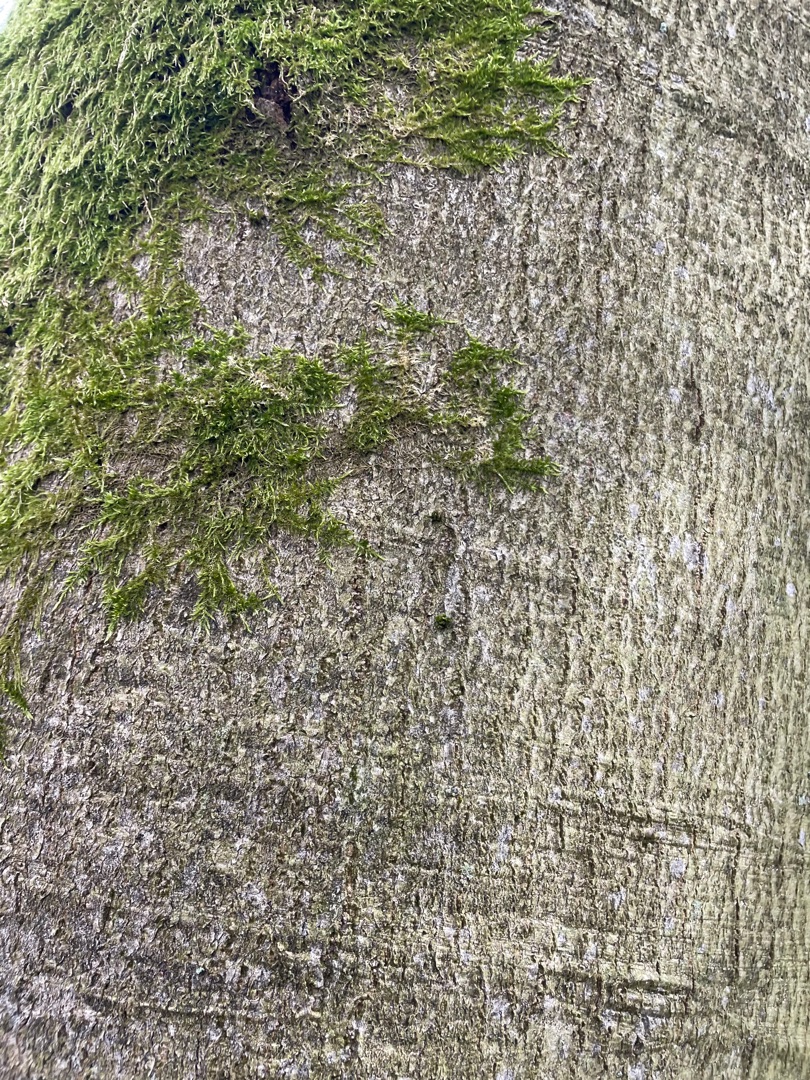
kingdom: Plantae
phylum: Bryophyta
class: Bryopsida
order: Hypnales
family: Hypnaceae
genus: Hypnum
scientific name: Hypnum
